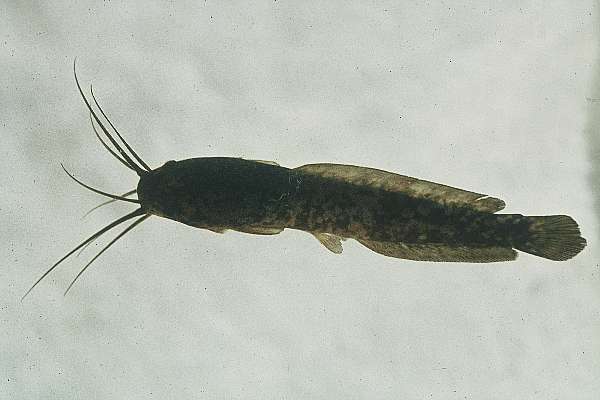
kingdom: Animalia
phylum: Chordata
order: Siluriformes
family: Clariidae
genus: Clarias
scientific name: Clarias ngamensis
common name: Blunt-toothed african catfish
